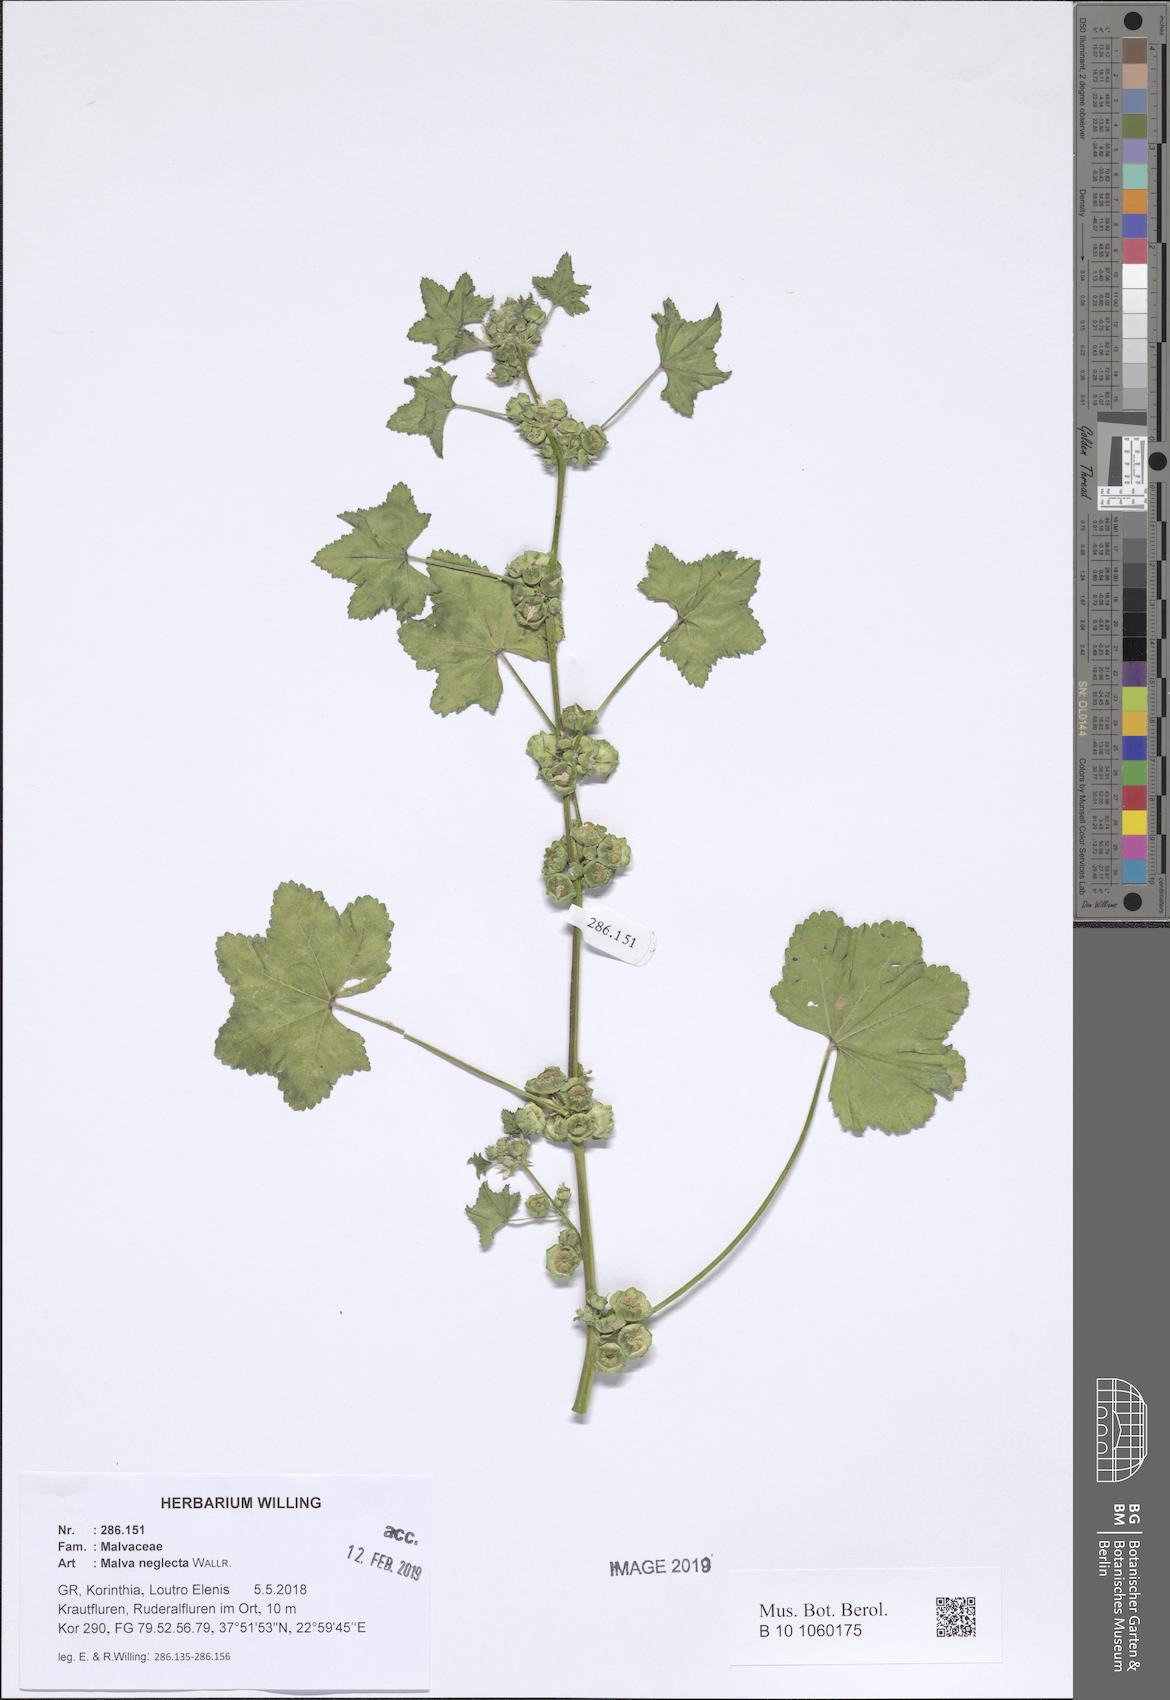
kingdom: Plantae
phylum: Tracheophyta
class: Magnoliopsida
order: Malvales
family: Malvaceae
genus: Malva
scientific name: Malva parviflora
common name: Least mallow
